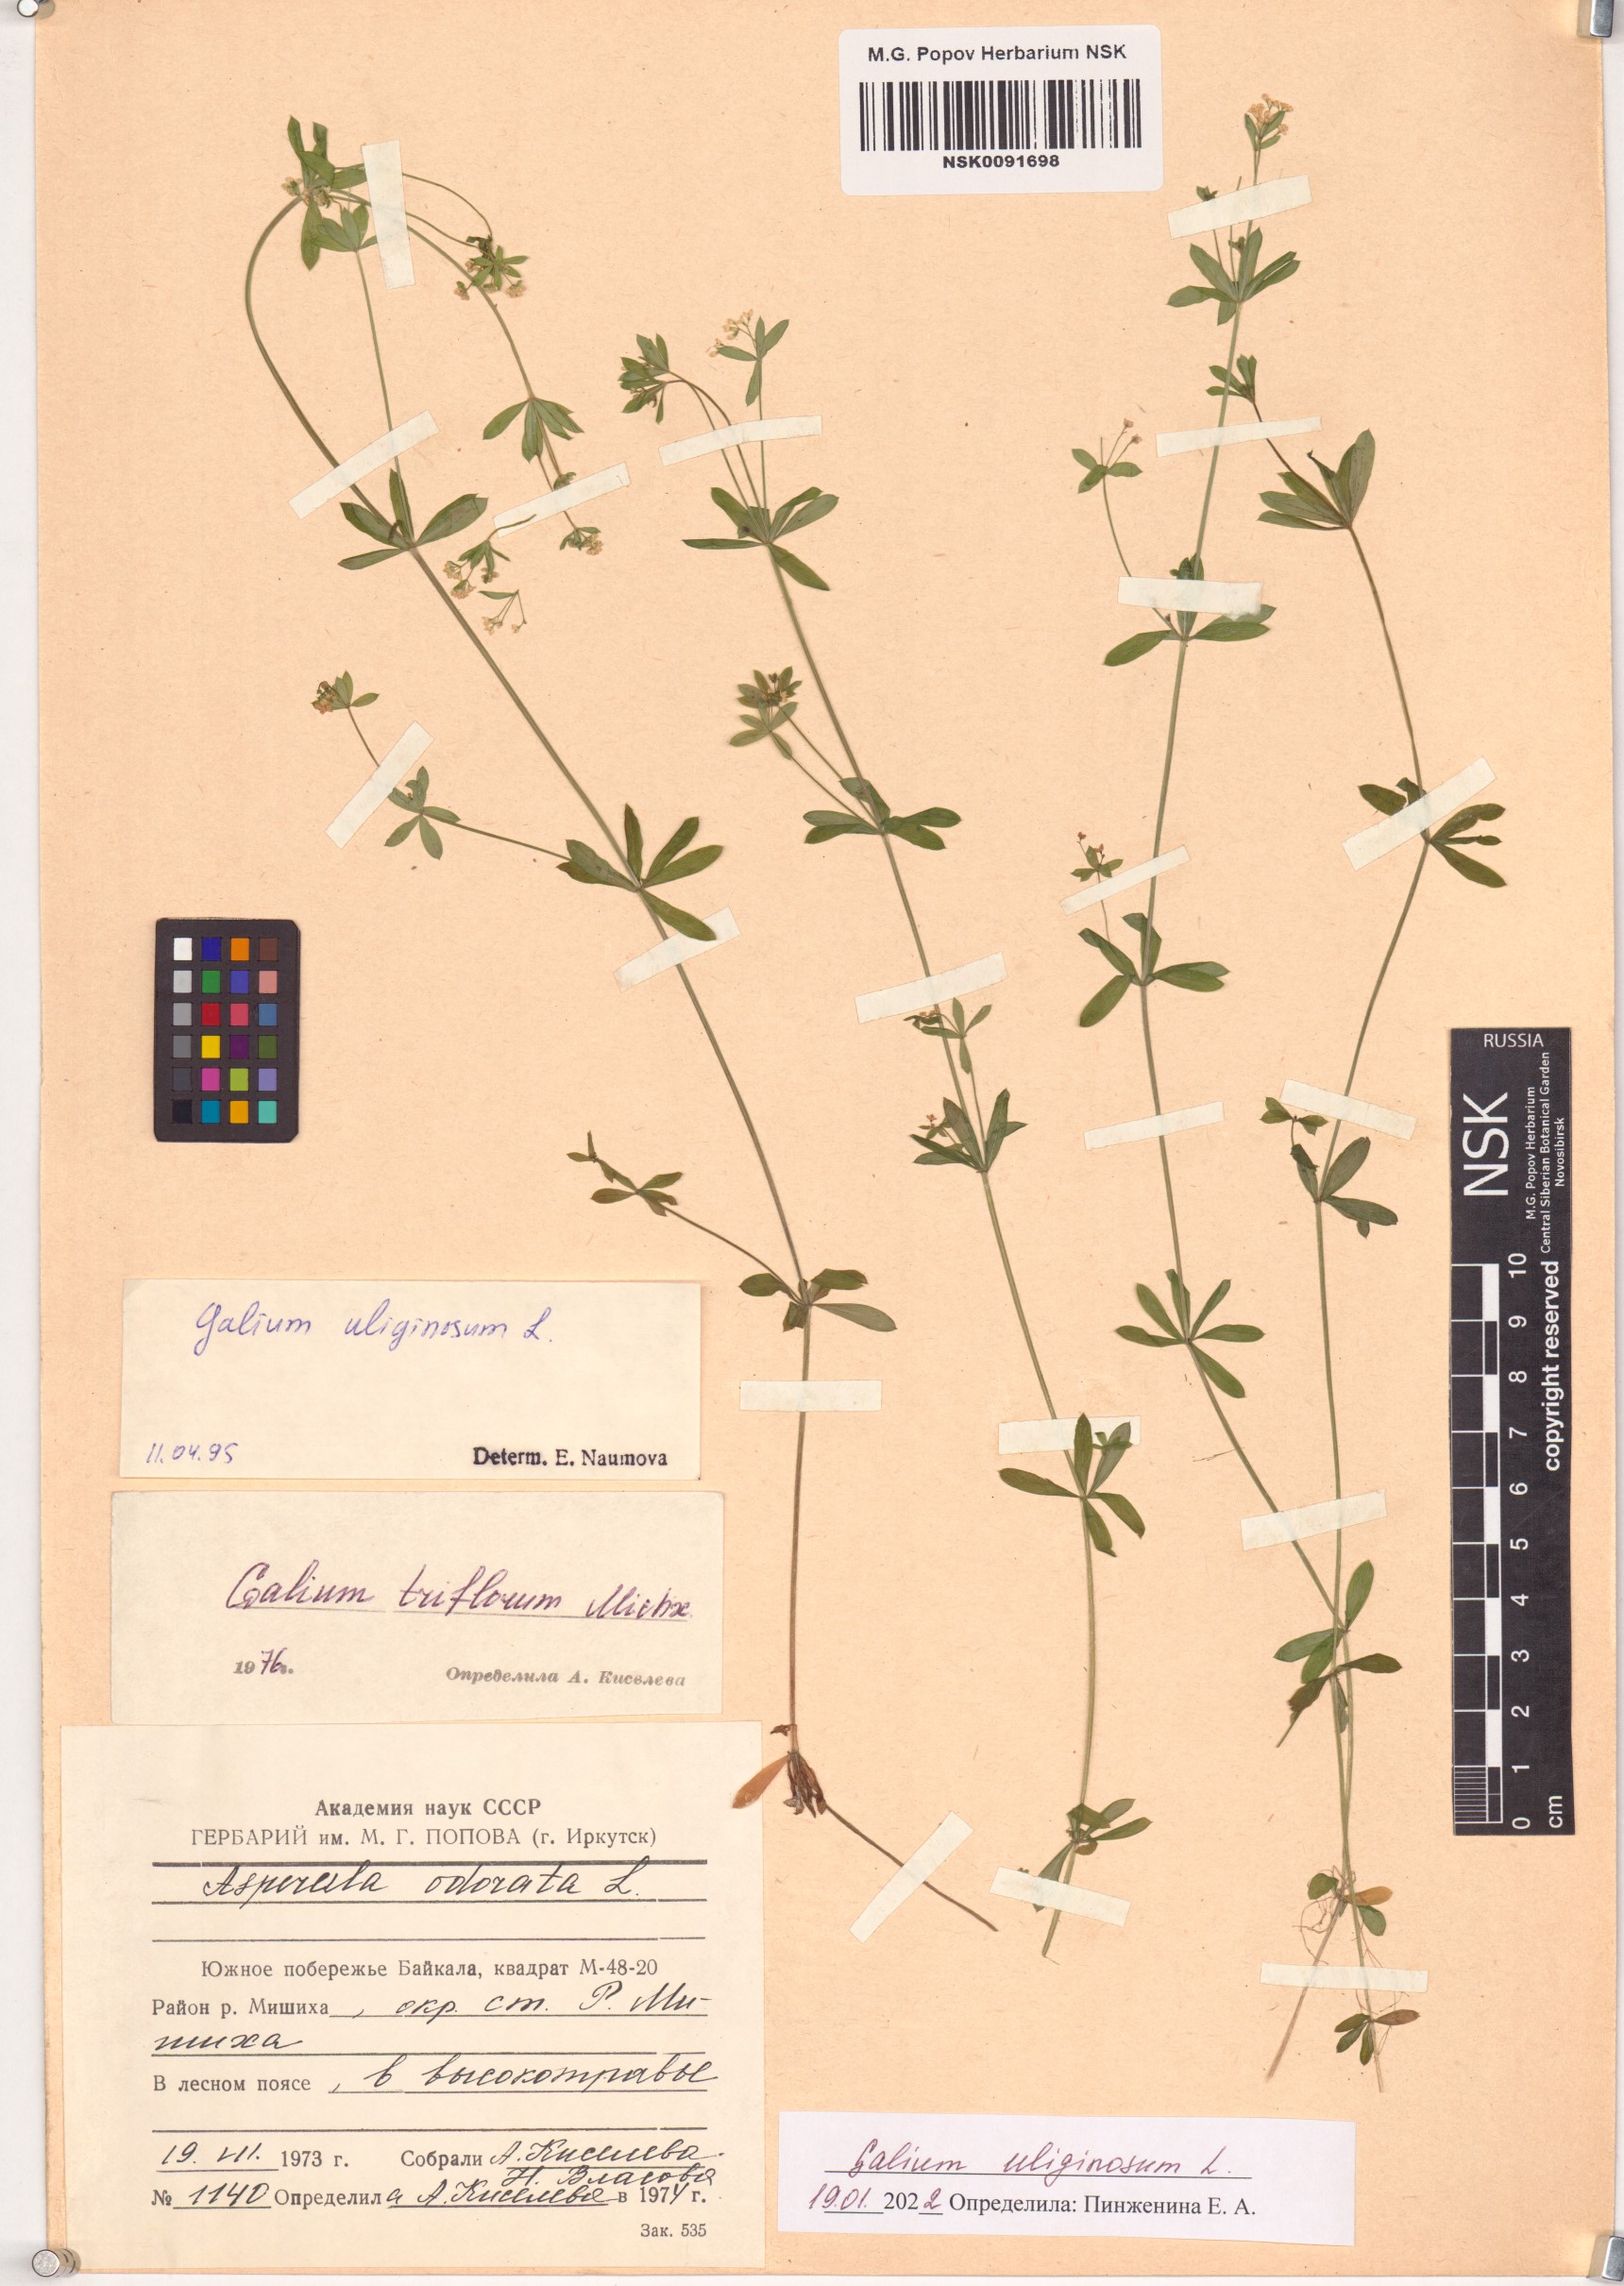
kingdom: Plantae
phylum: Tracheophyta
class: Magnoliopsida
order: Gentianales
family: Rubiaceae
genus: Galium
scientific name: Galium uliginosum
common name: Fen bedstraw
